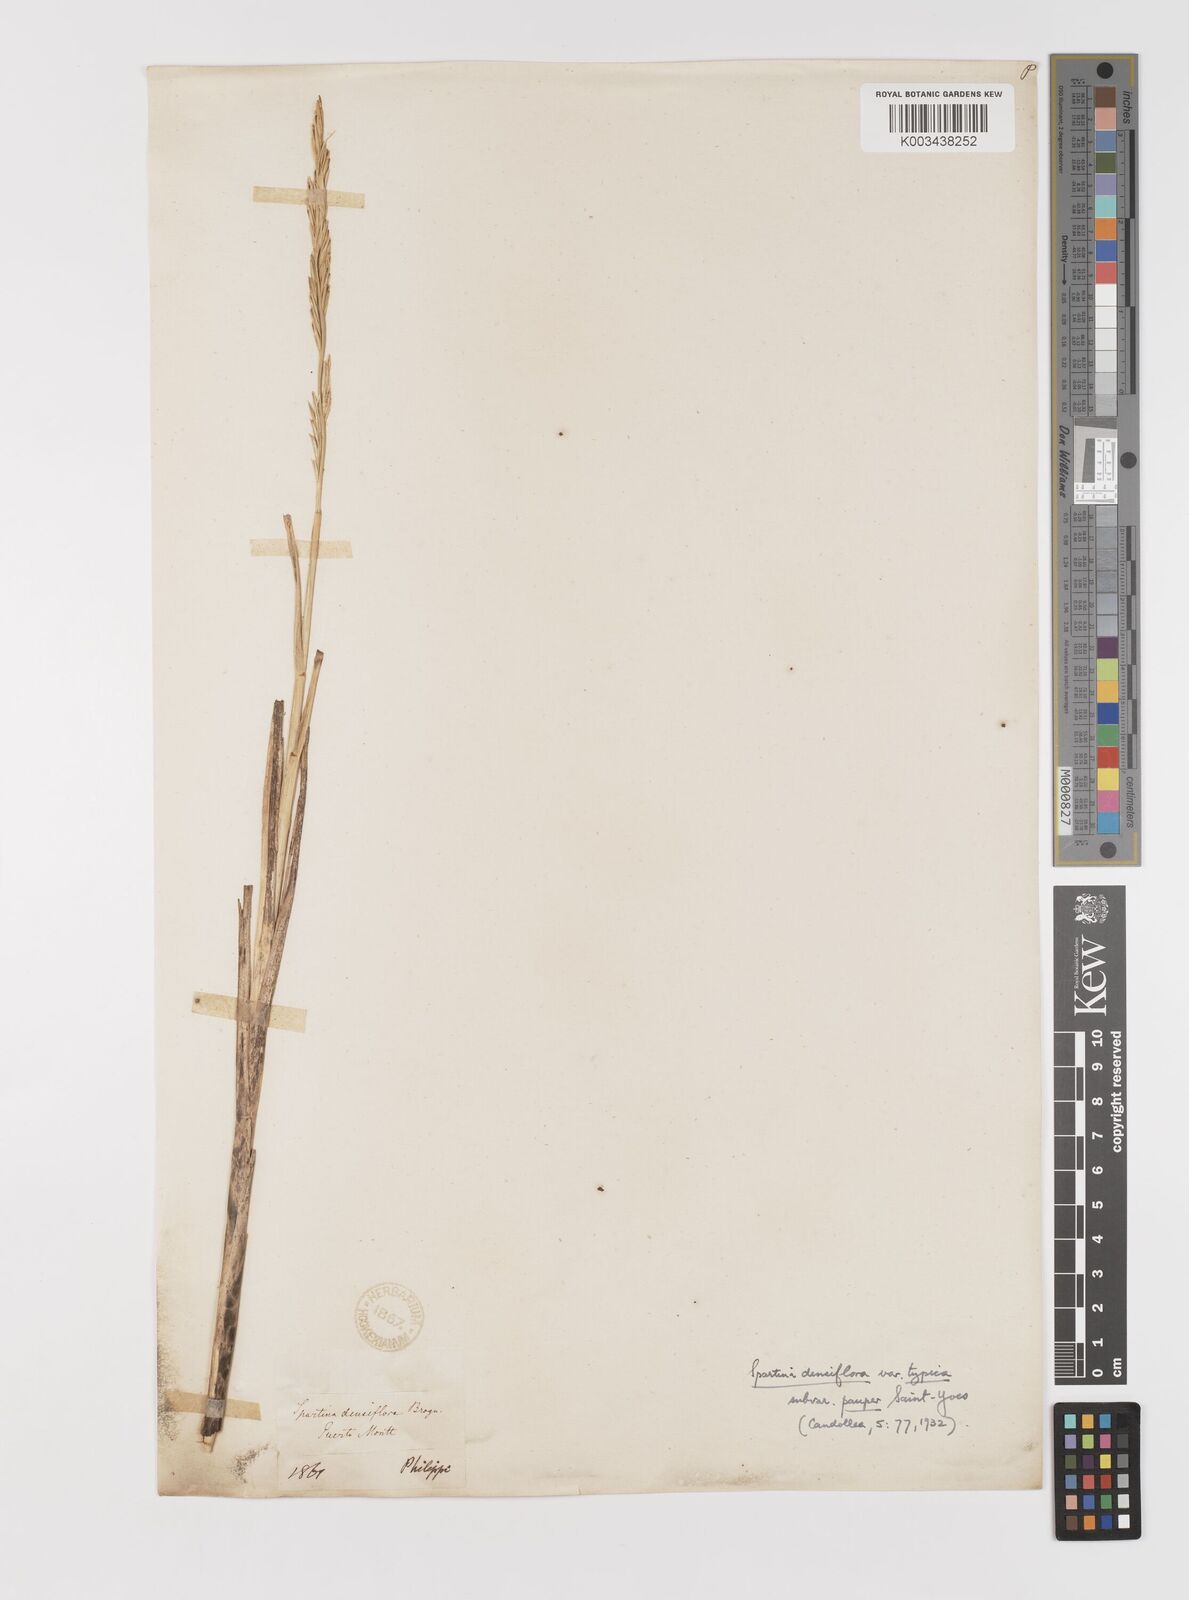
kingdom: Plantae
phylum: Tracheophyta
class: Liliopsida
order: Poales
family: Poaceae
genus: Sporobolus
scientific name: Sporobolus montevidensis
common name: Montevideo dropseed
